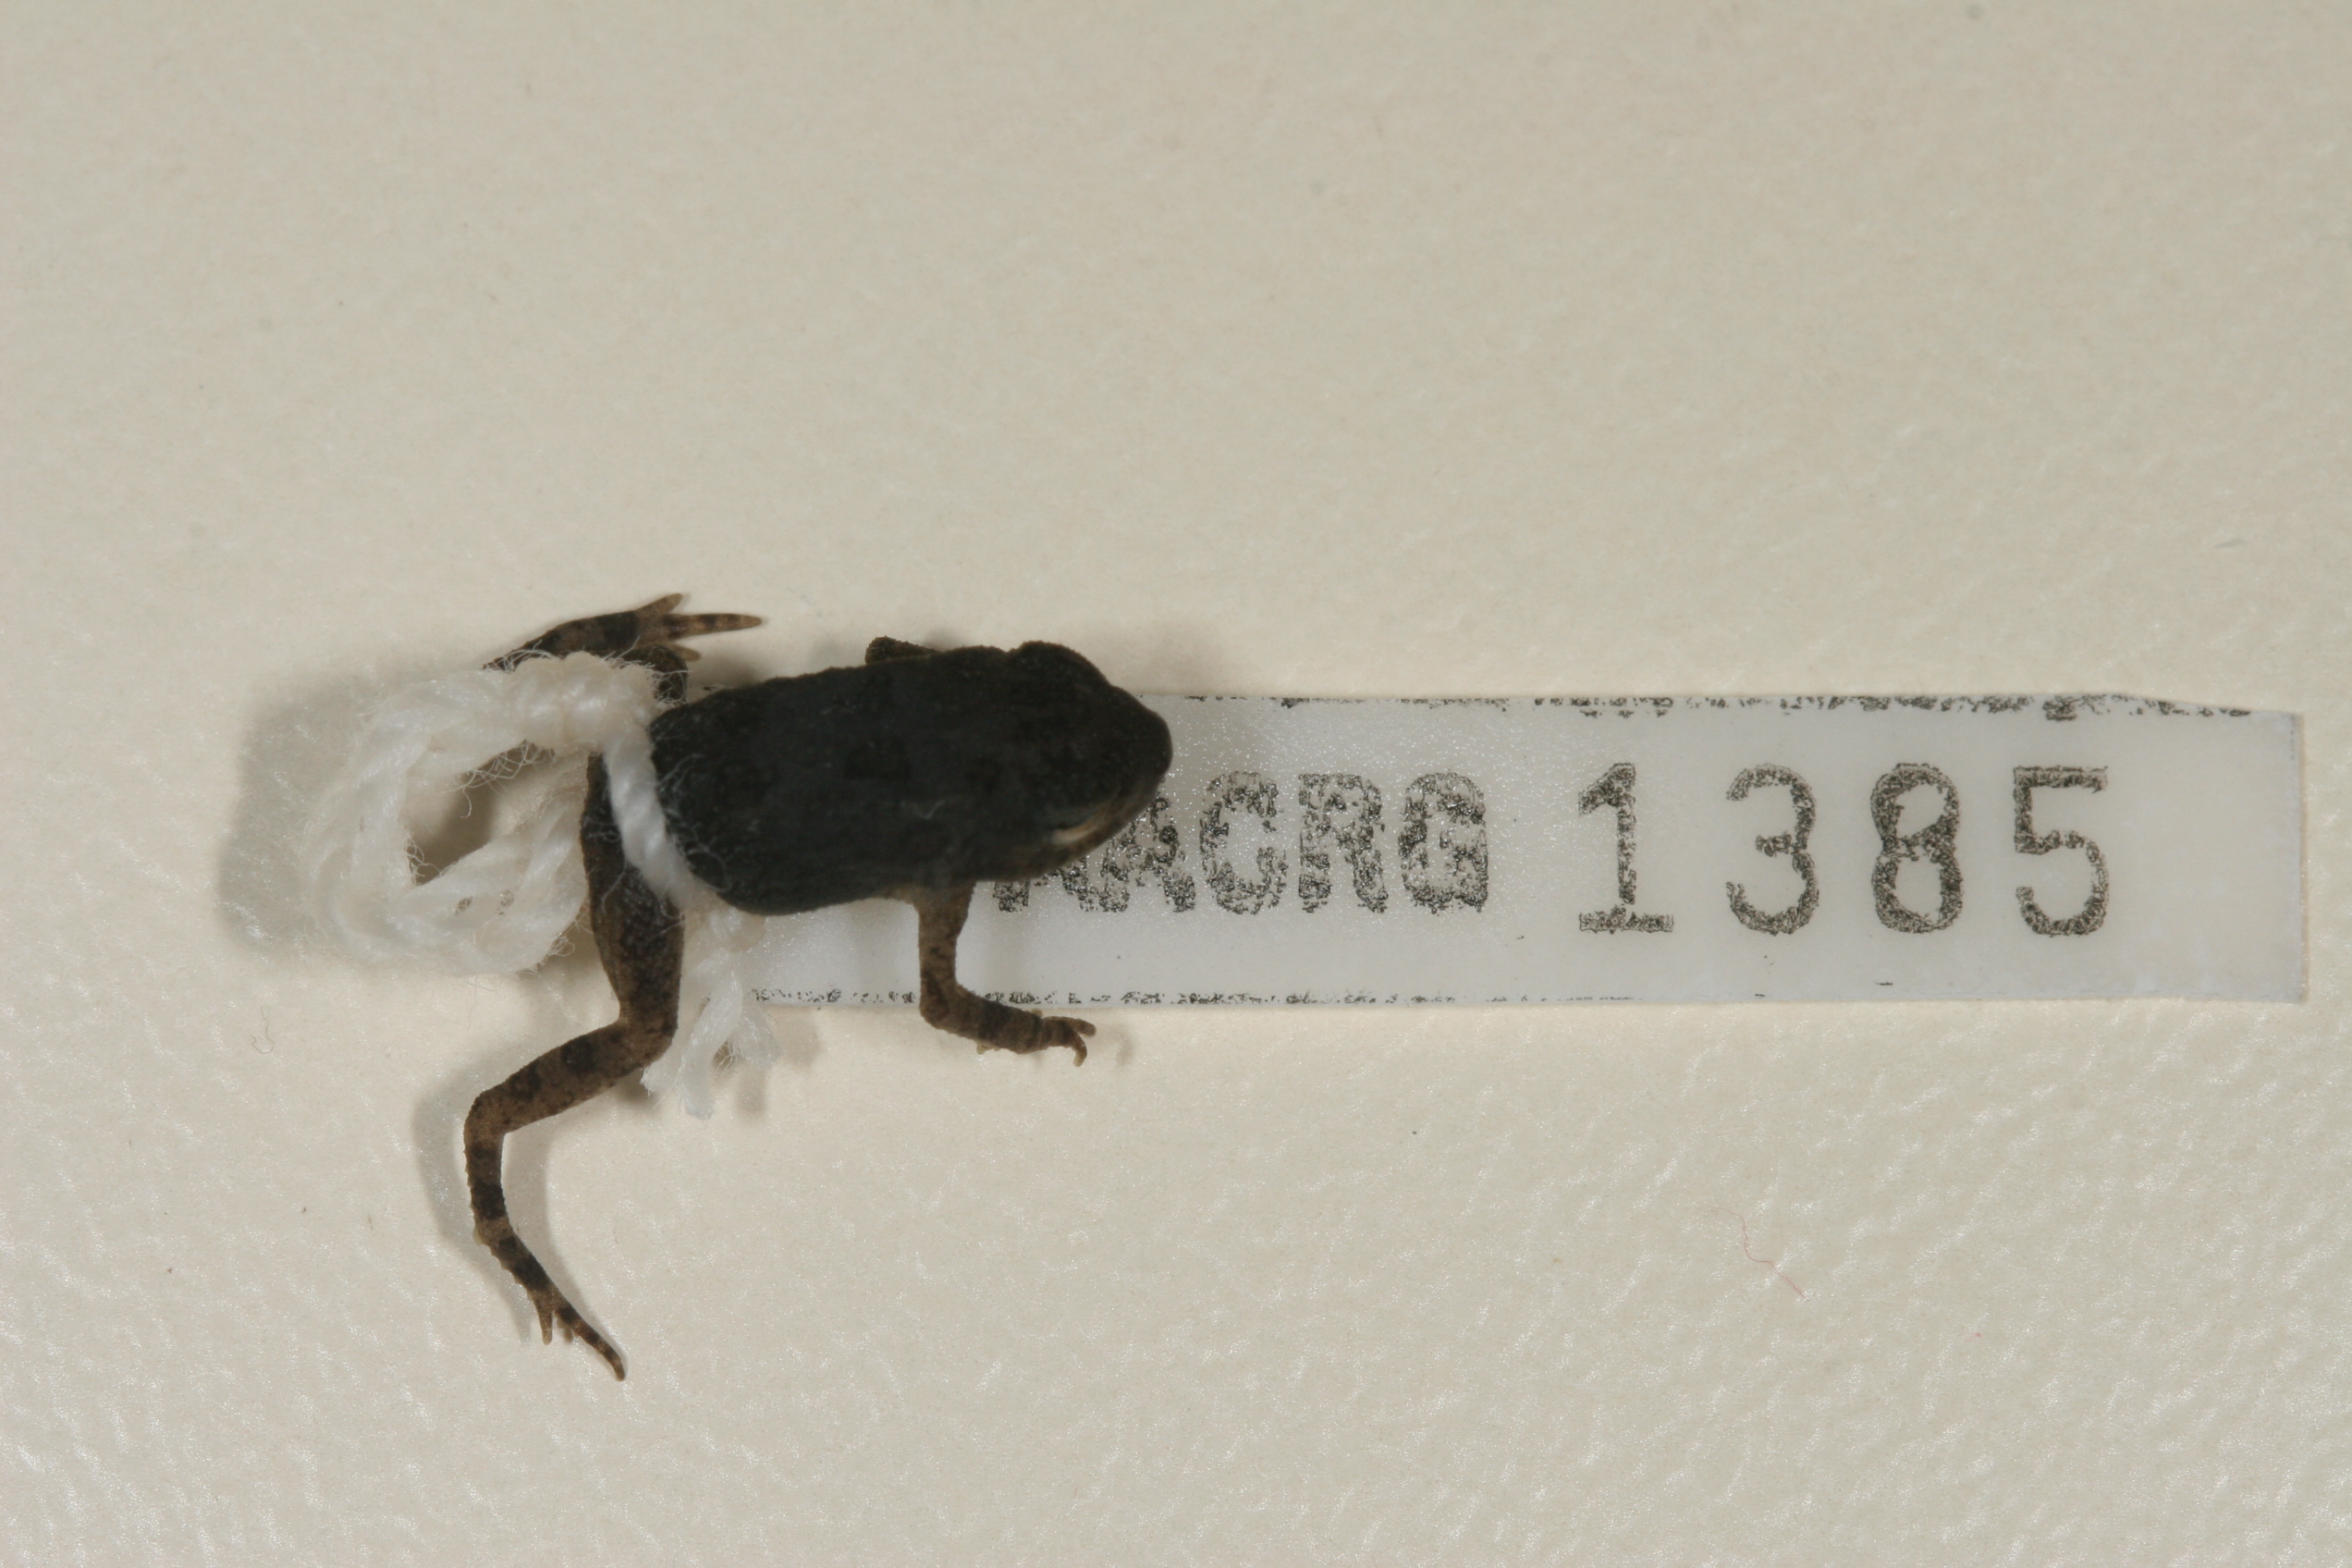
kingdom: Animalia
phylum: Chordata
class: Amphibia
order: Anura
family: Bufonidae
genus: Sclerophrys
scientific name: Sclerophrys gutturalis
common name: African common toad
